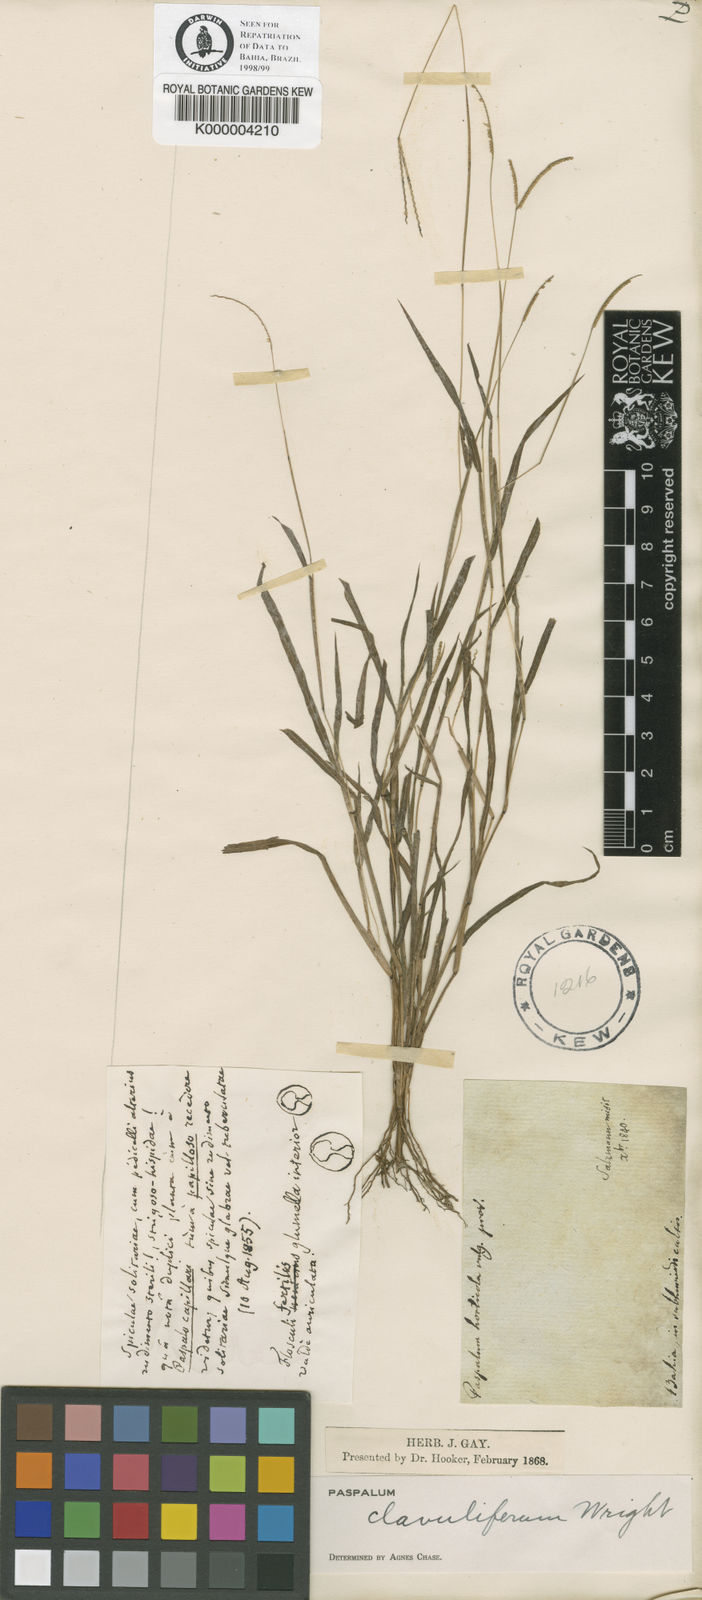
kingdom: Plantae
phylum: Tracheophyta
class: Liliopsida
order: Poales
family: Poaceae
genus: Paspalum
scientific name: Paspalum clavuliferum
